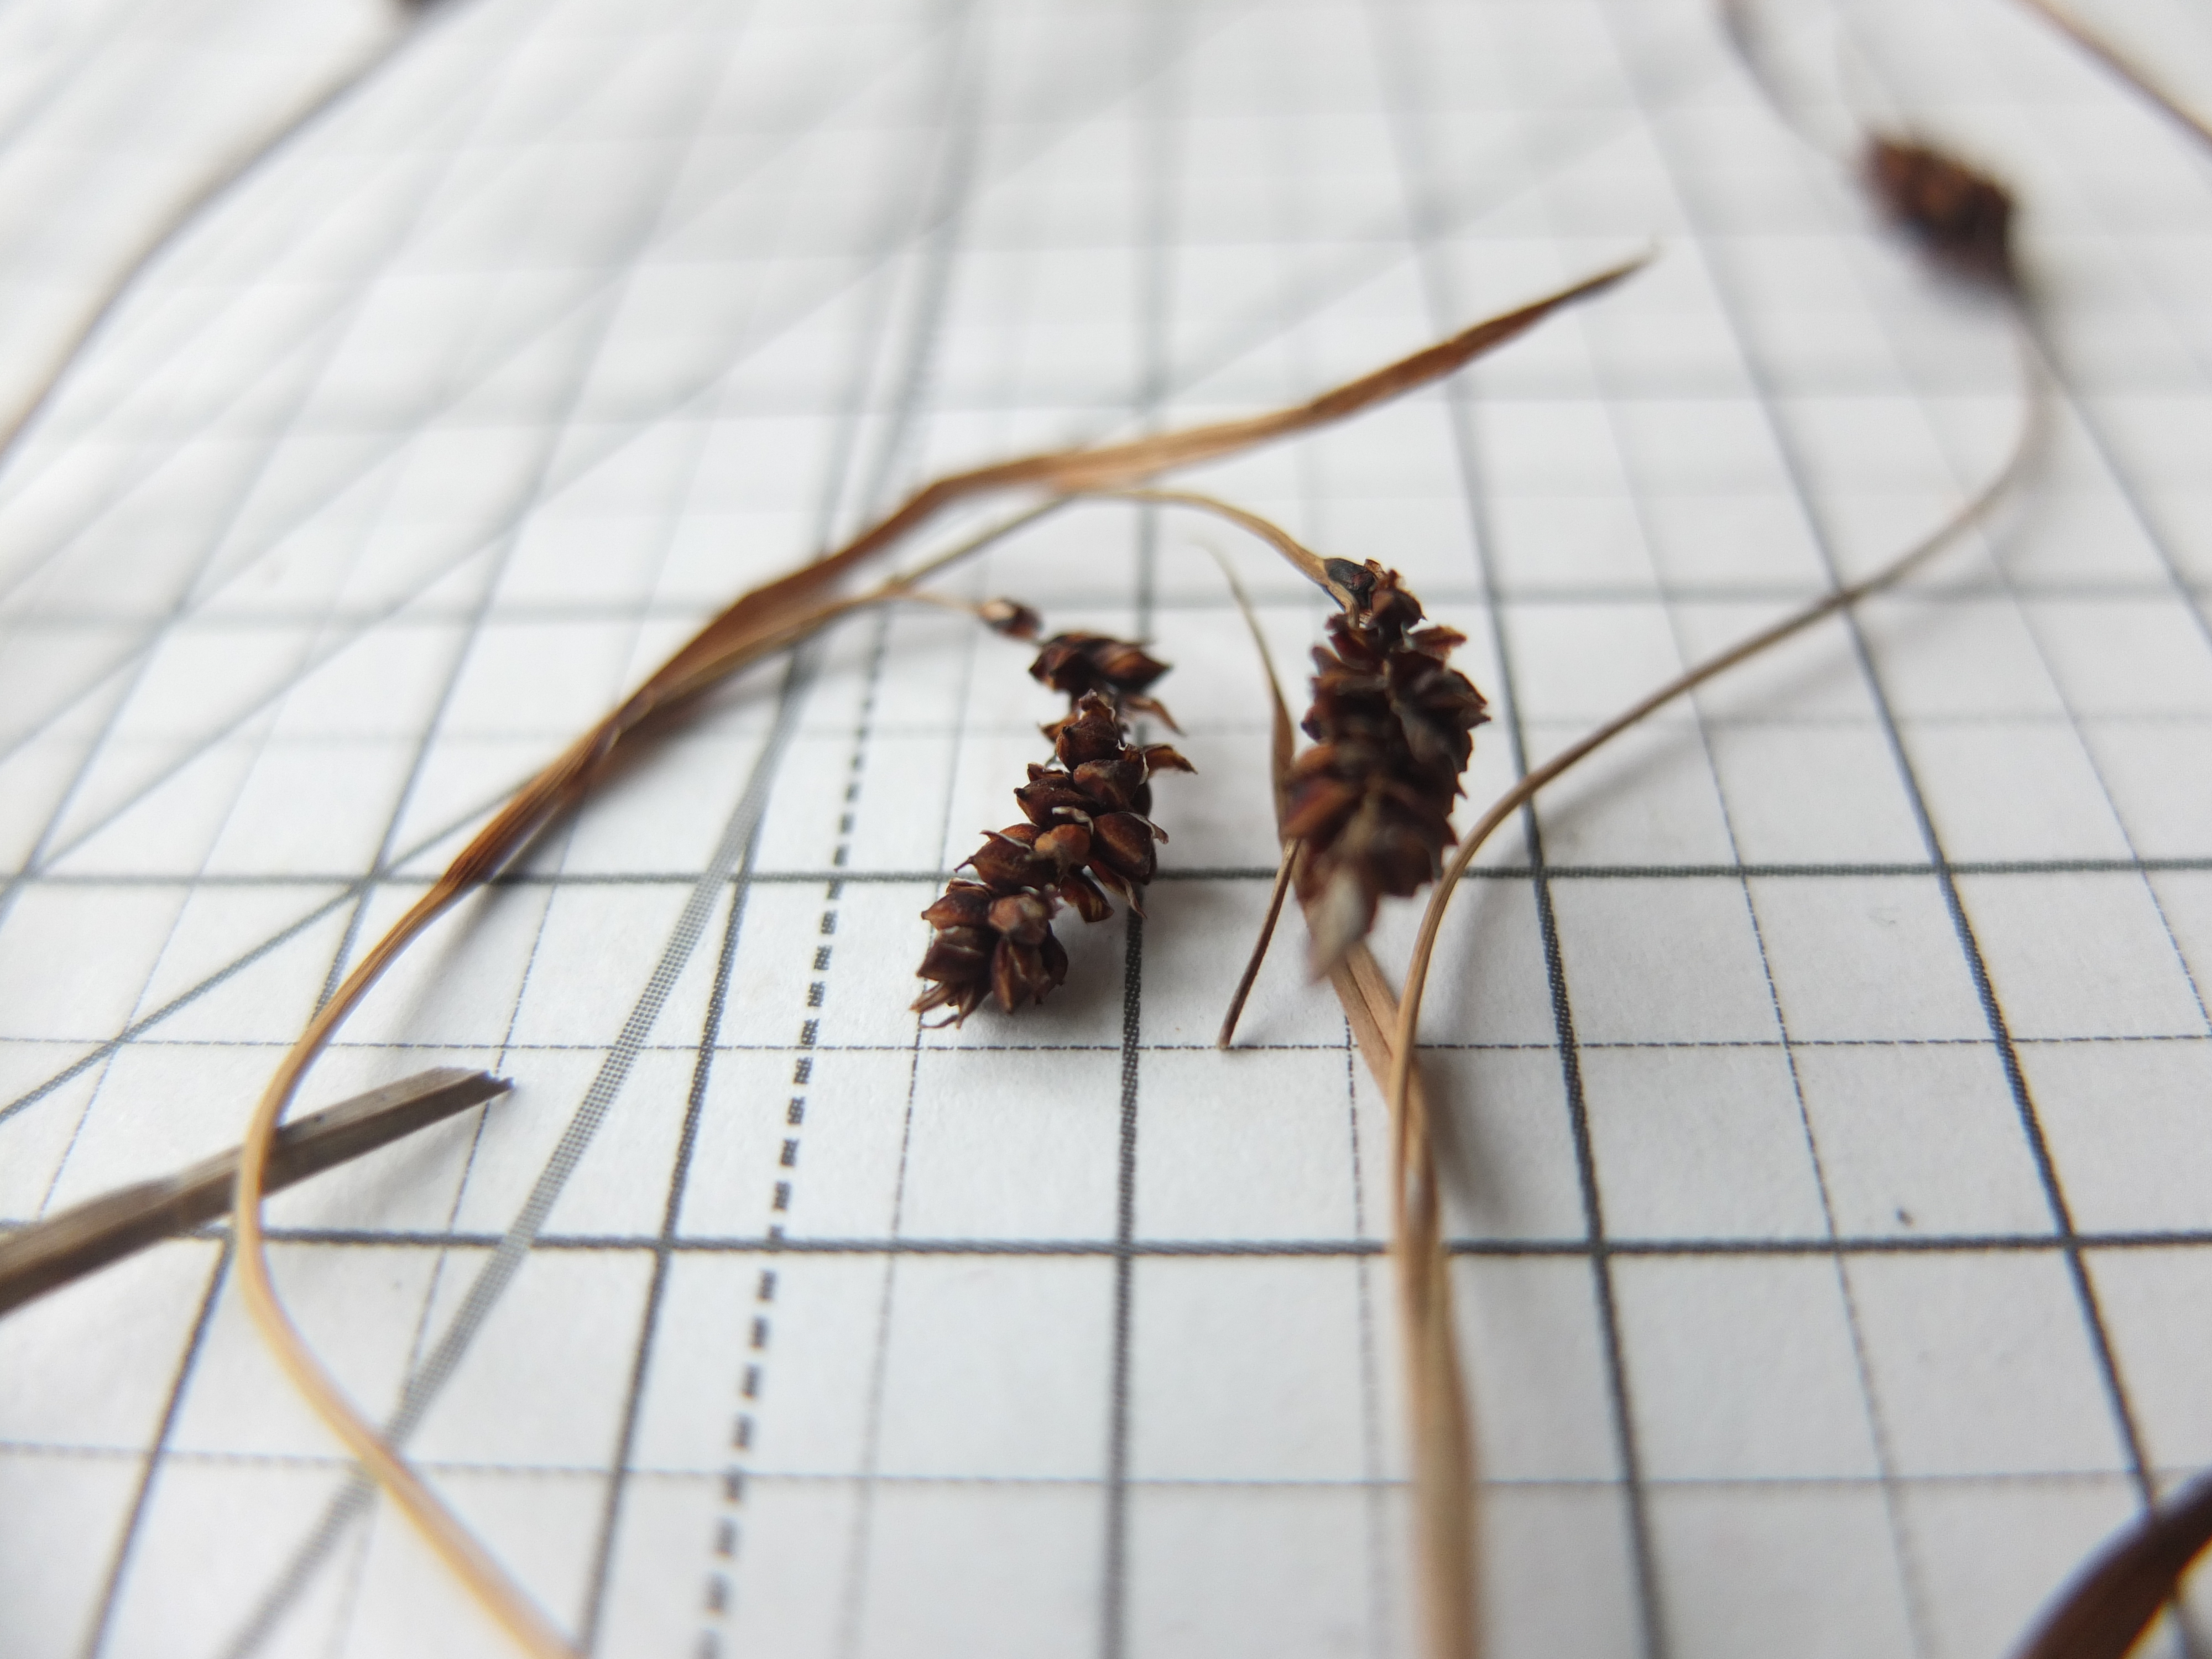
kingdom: Plantae
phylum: Tracheophyta
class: Liliopsida
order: Poales
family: Cyperaceae
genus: Carex
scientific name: Carex flacca
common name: Blågrøn star
